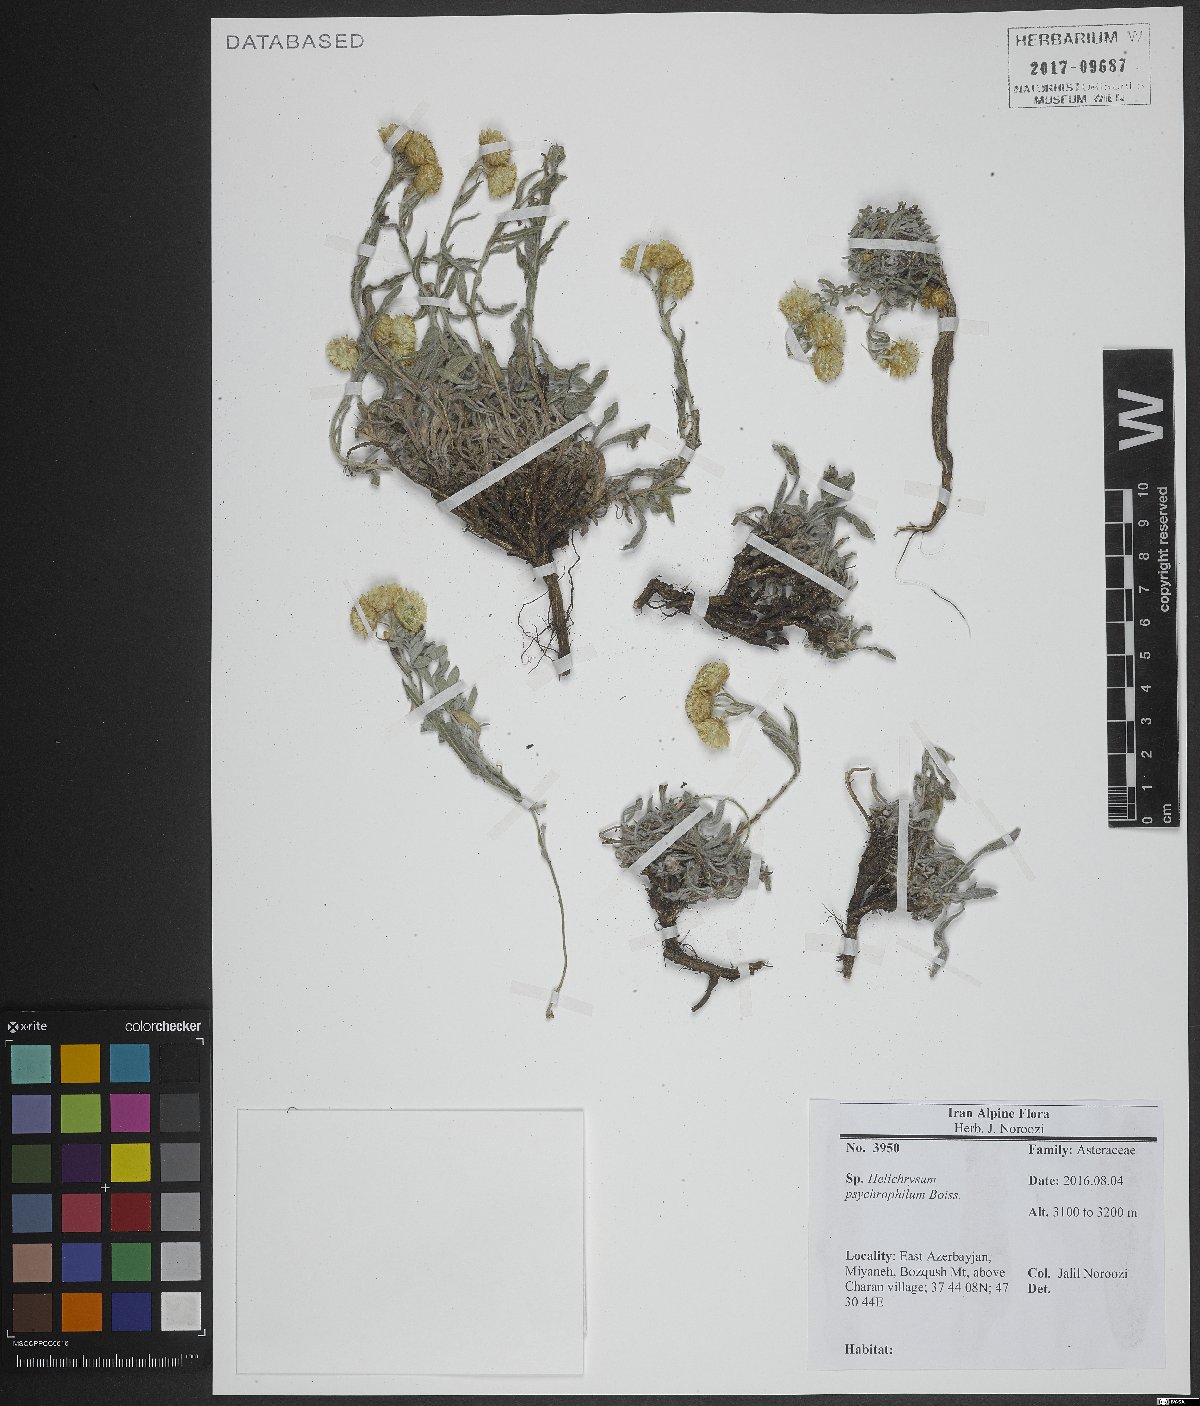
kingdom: Plantae
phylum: Tracheophyta
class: Magnoliopsida
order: Asterales
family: Asteraceae
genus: Helichrysum
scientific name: Helichrysum psychrophilum
